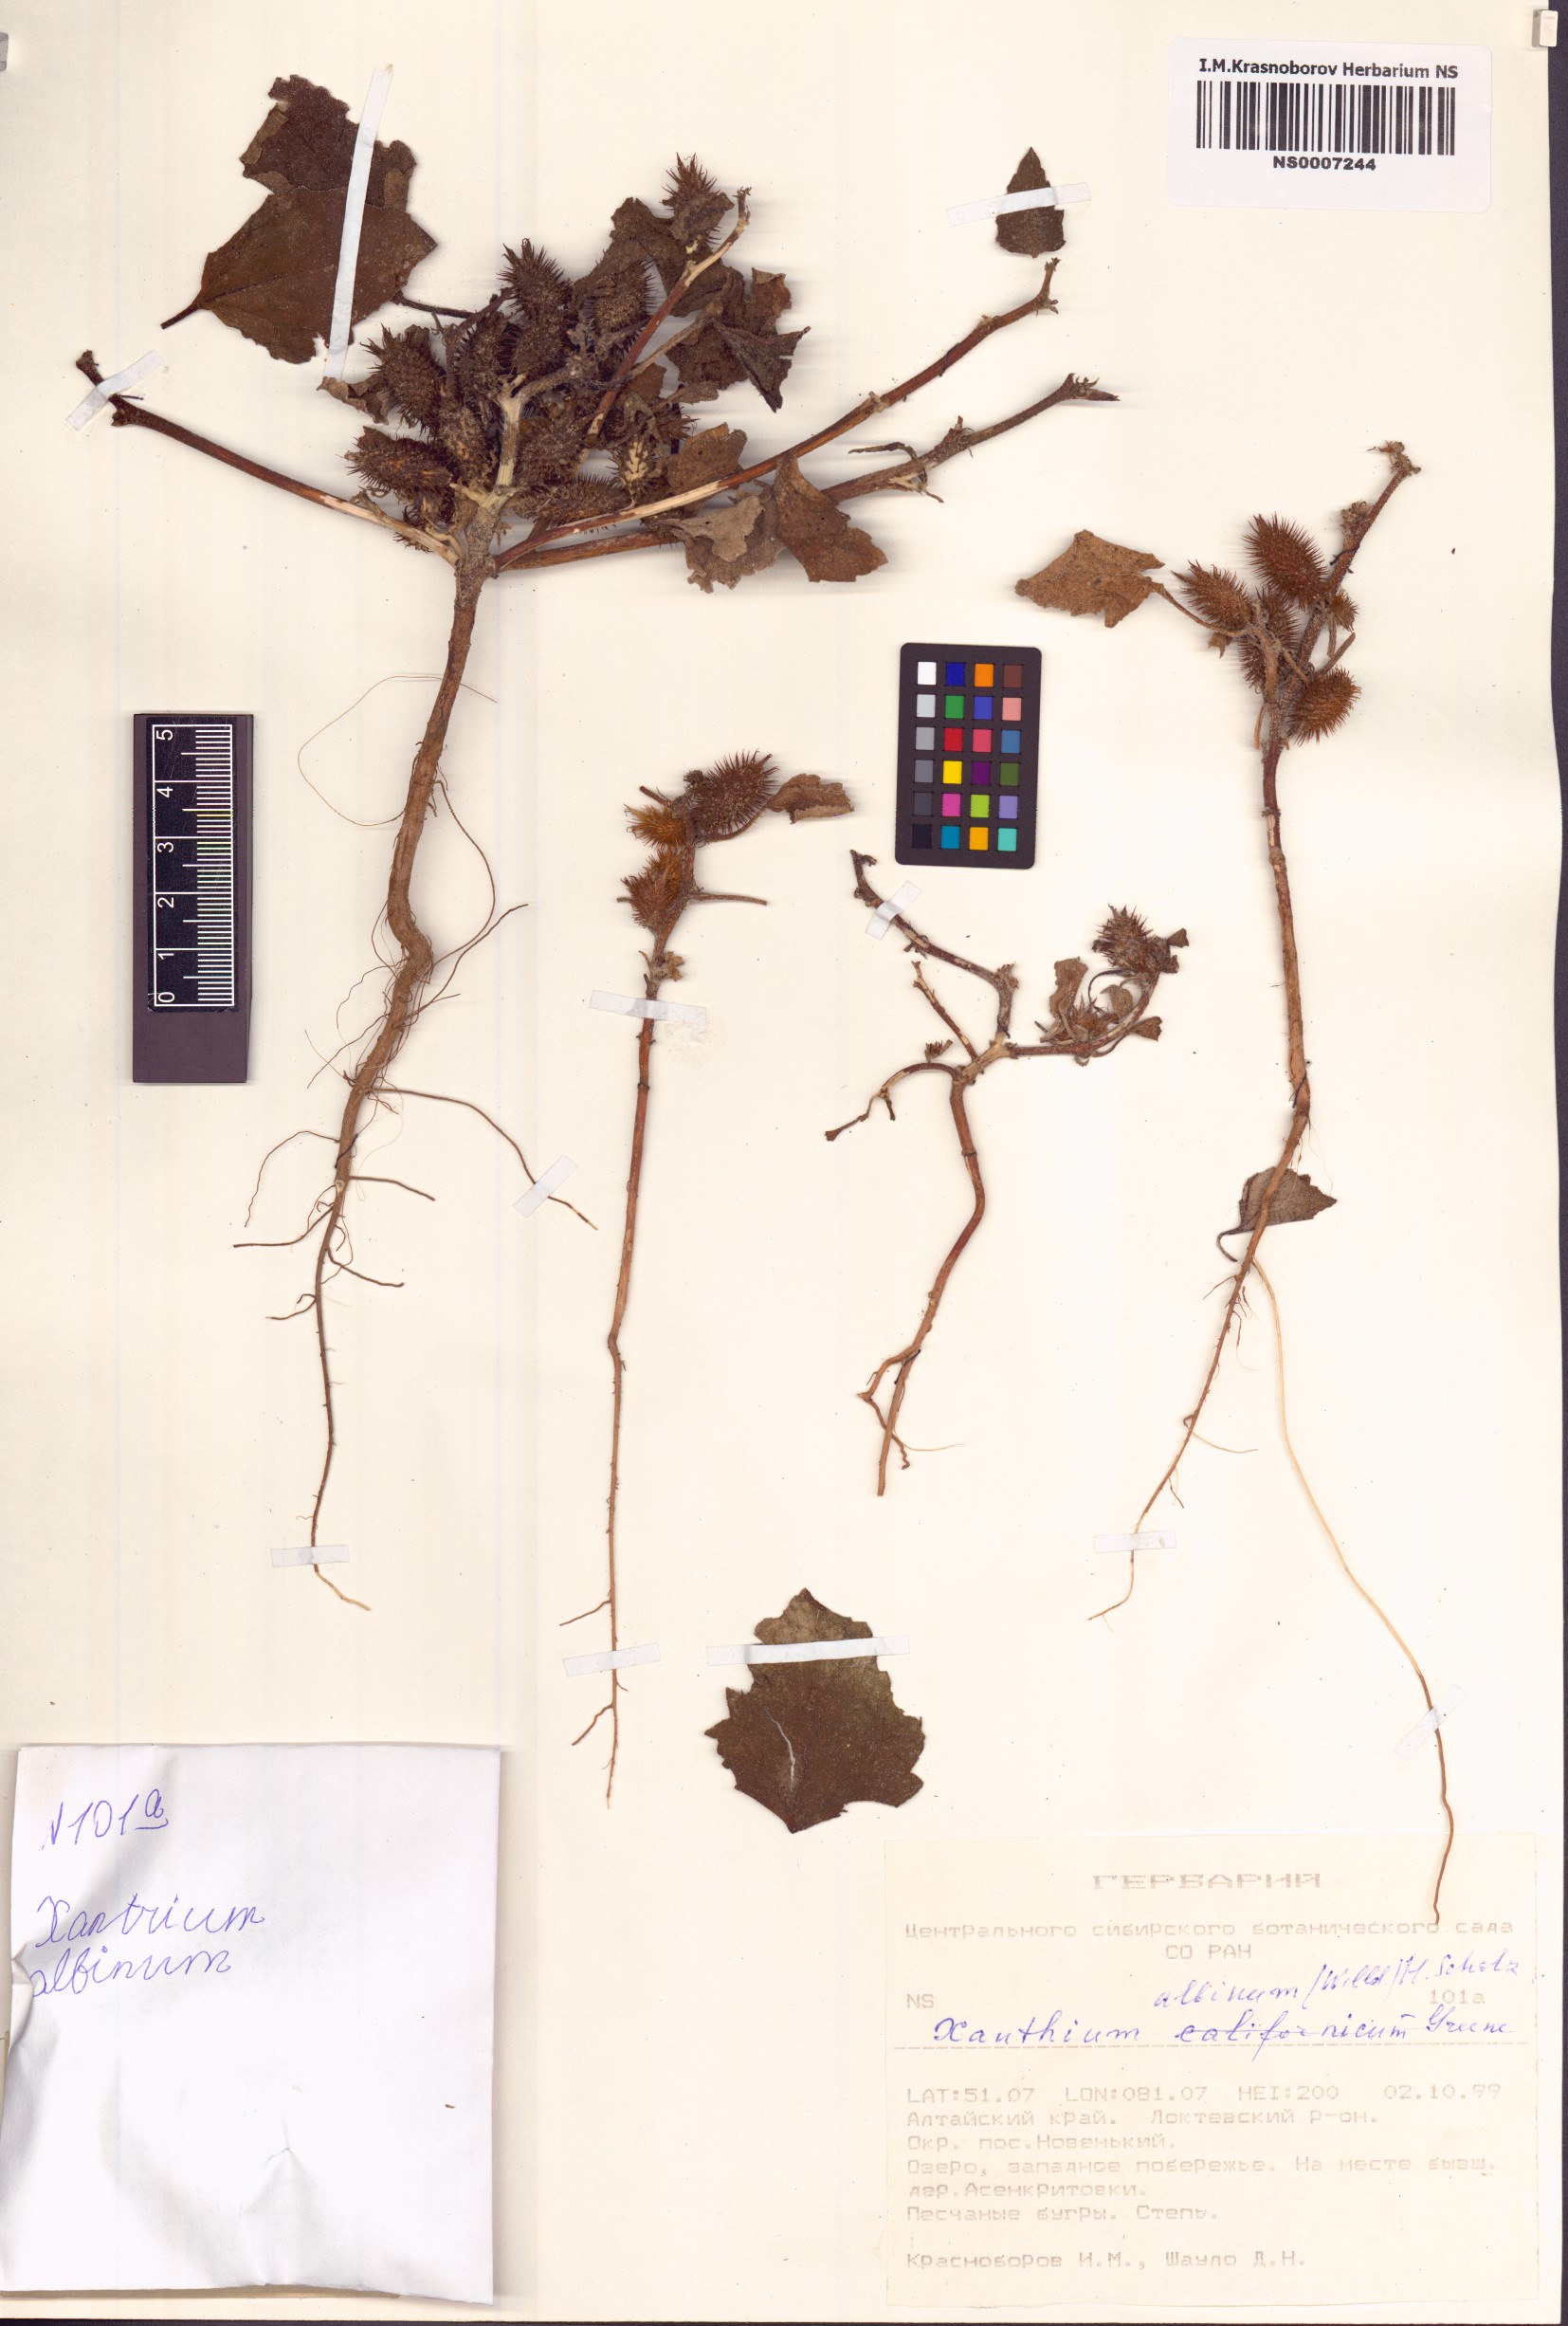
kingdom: Plantae
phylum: Tracheophyta
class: Magnoliopsida
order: Asterales
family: Asteraceae
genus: Xanthium
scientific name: Xanthium orientale
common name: Californian burr
